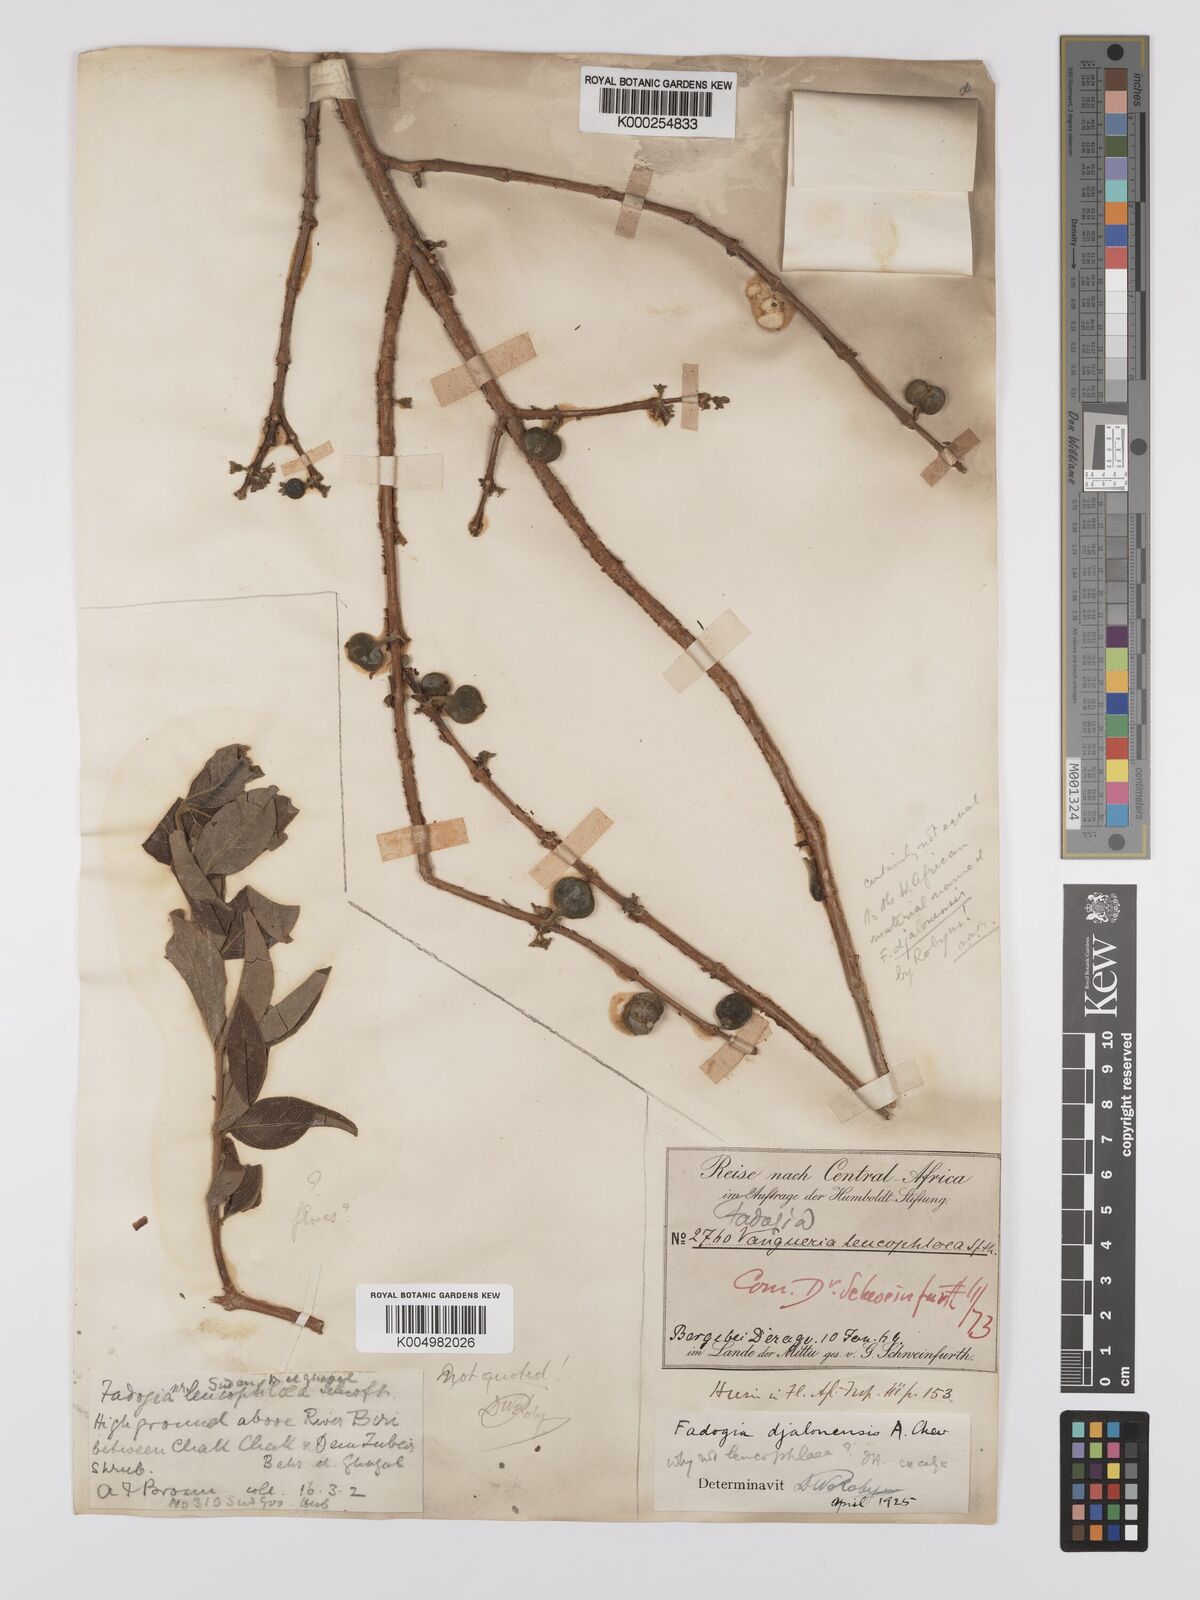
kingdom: Plantae
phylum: Tracheophyta
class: Magnoliopsida
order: Gentianales
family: Rubiaceae
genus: Fadogia
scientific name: Fadogia leucophloea
